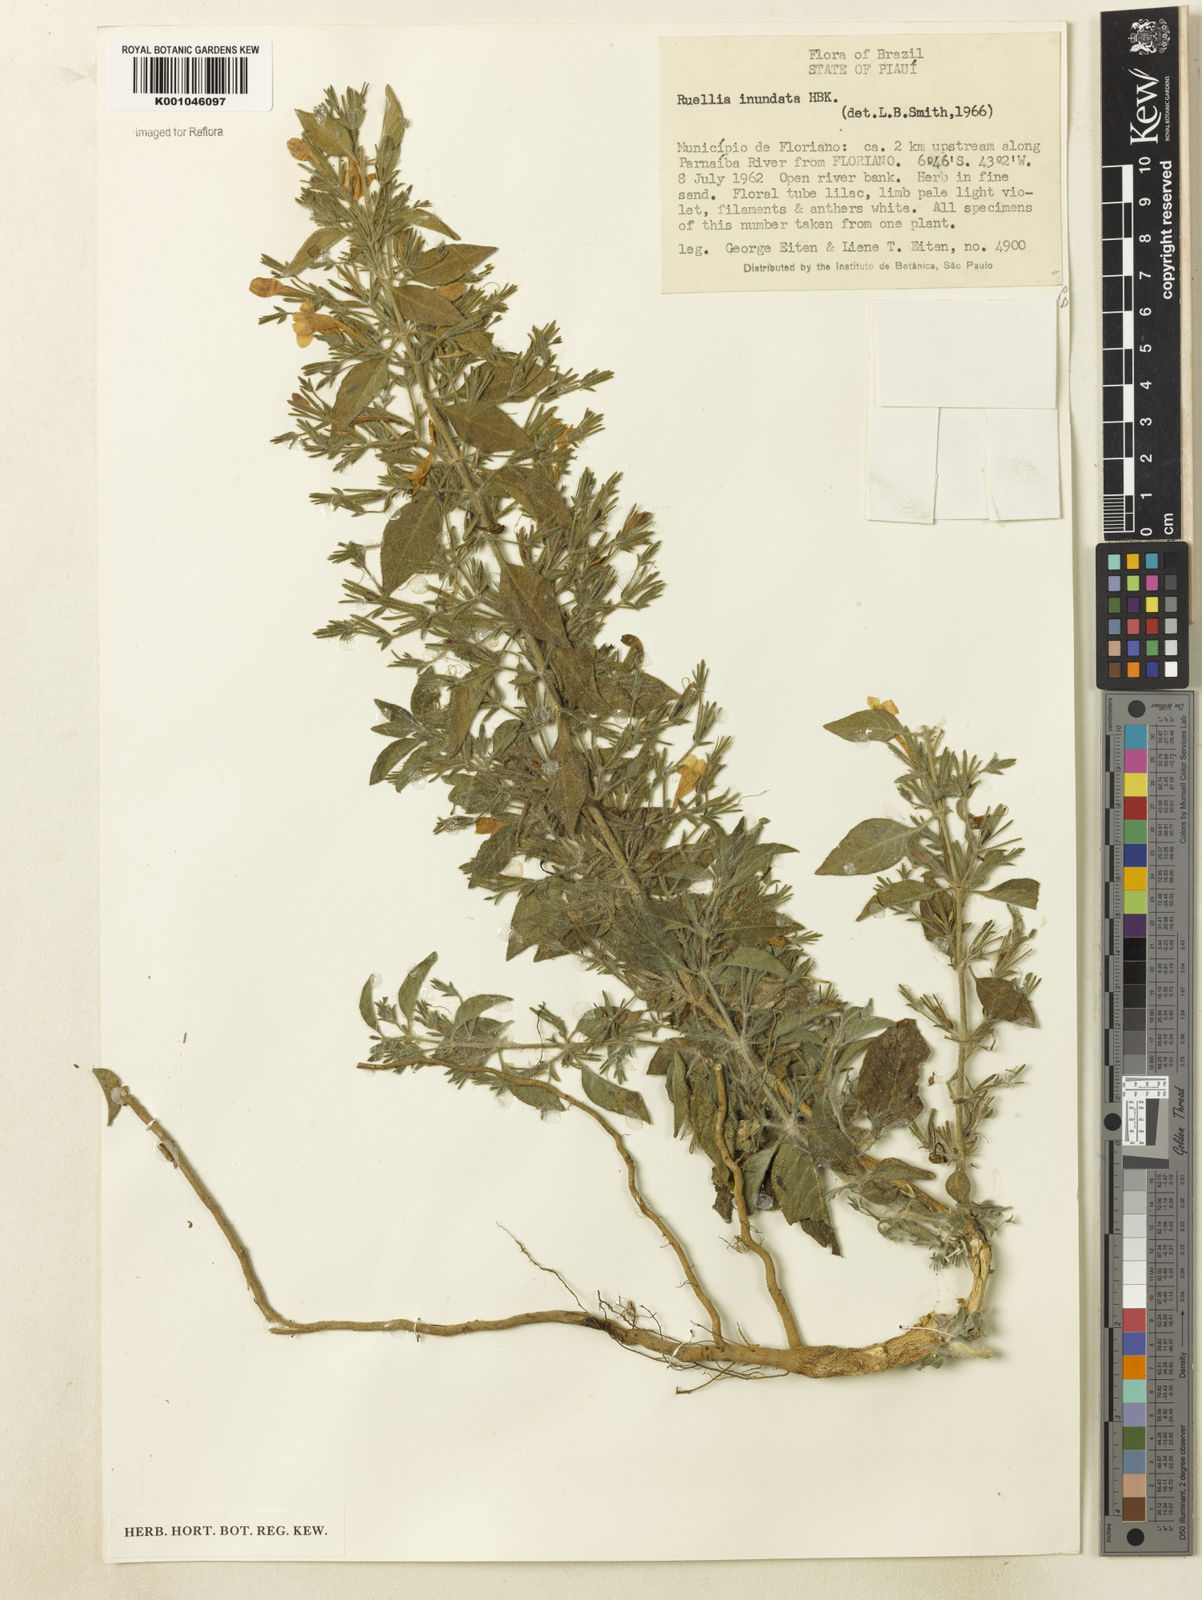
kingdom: Plantae
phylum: Tracheophyta
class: Magnoliopsida
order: Lamiales
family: Acanthaceae
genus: Ruellia
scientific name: Ruellia inundata
